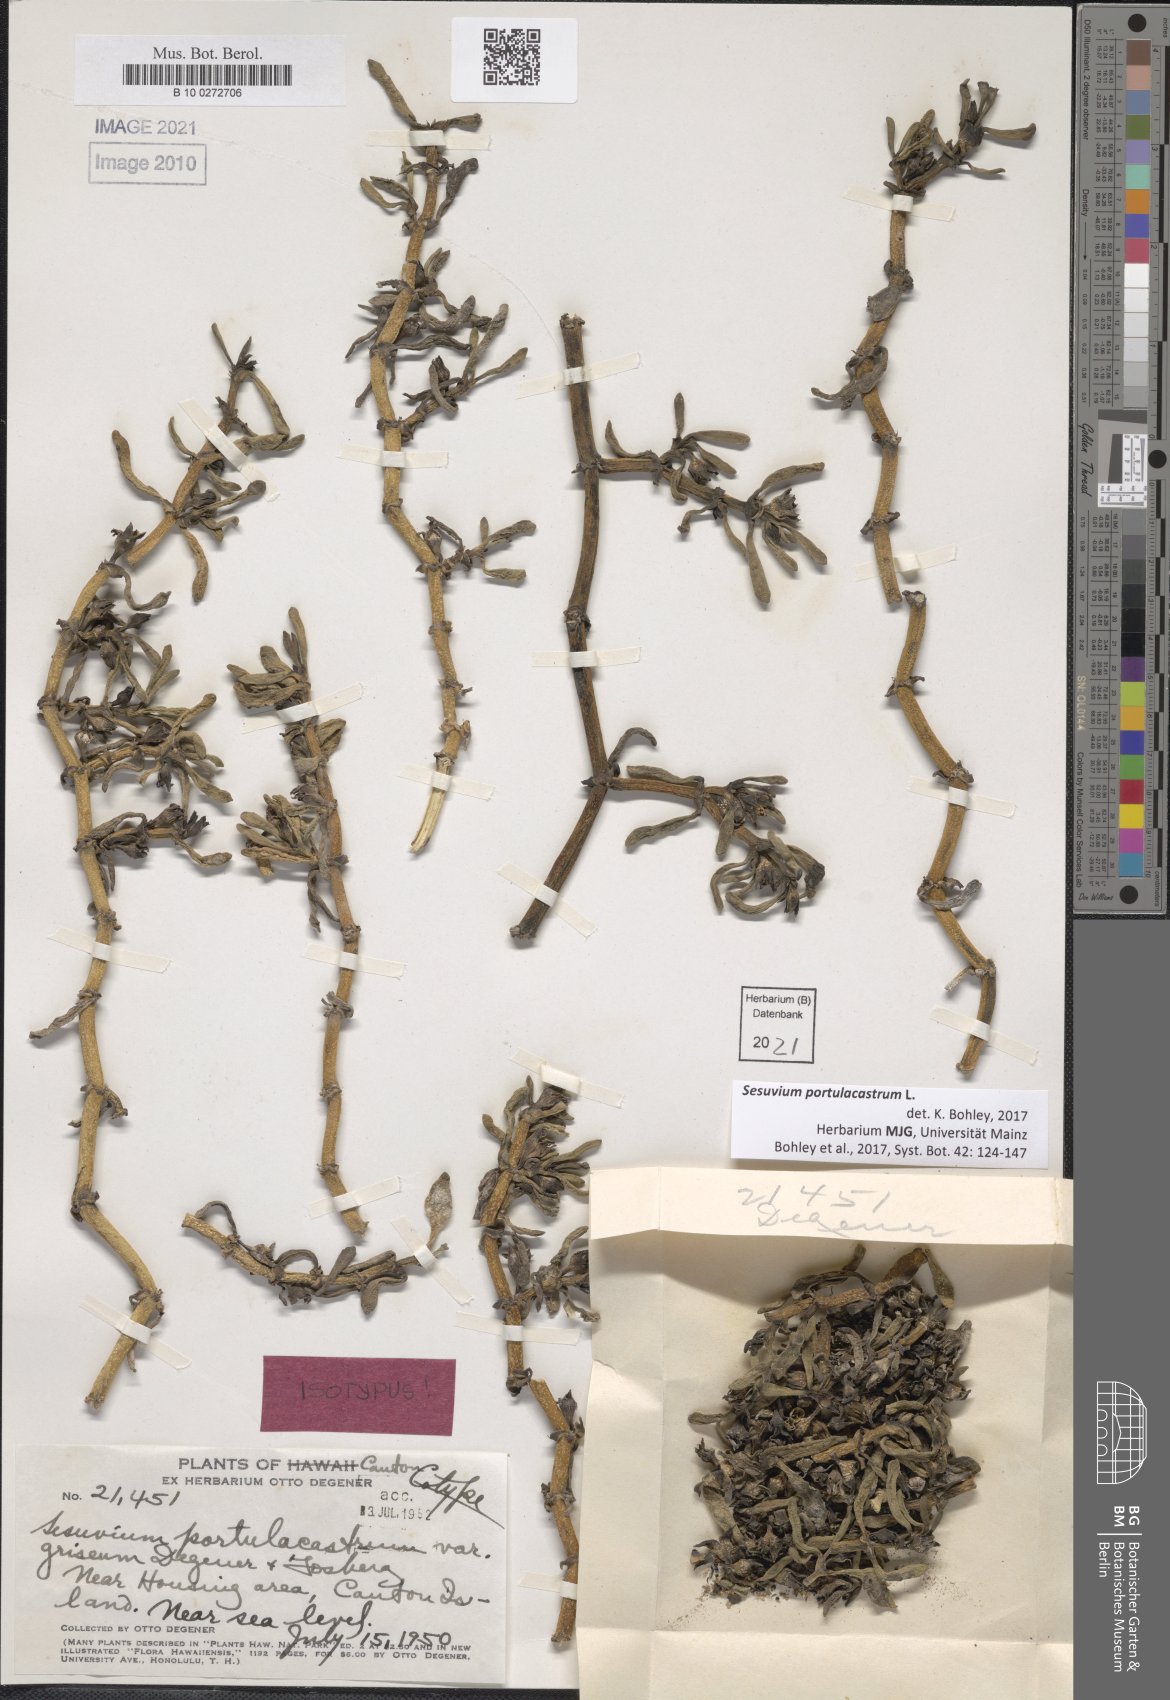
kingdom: Plantae
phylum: Tracheophyta
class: Magnoliopsida
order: Caryophyllales
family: Aizoaceae
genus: Sesuvium
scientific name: Sesuvium portulacastrum
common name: Sea-purslane
